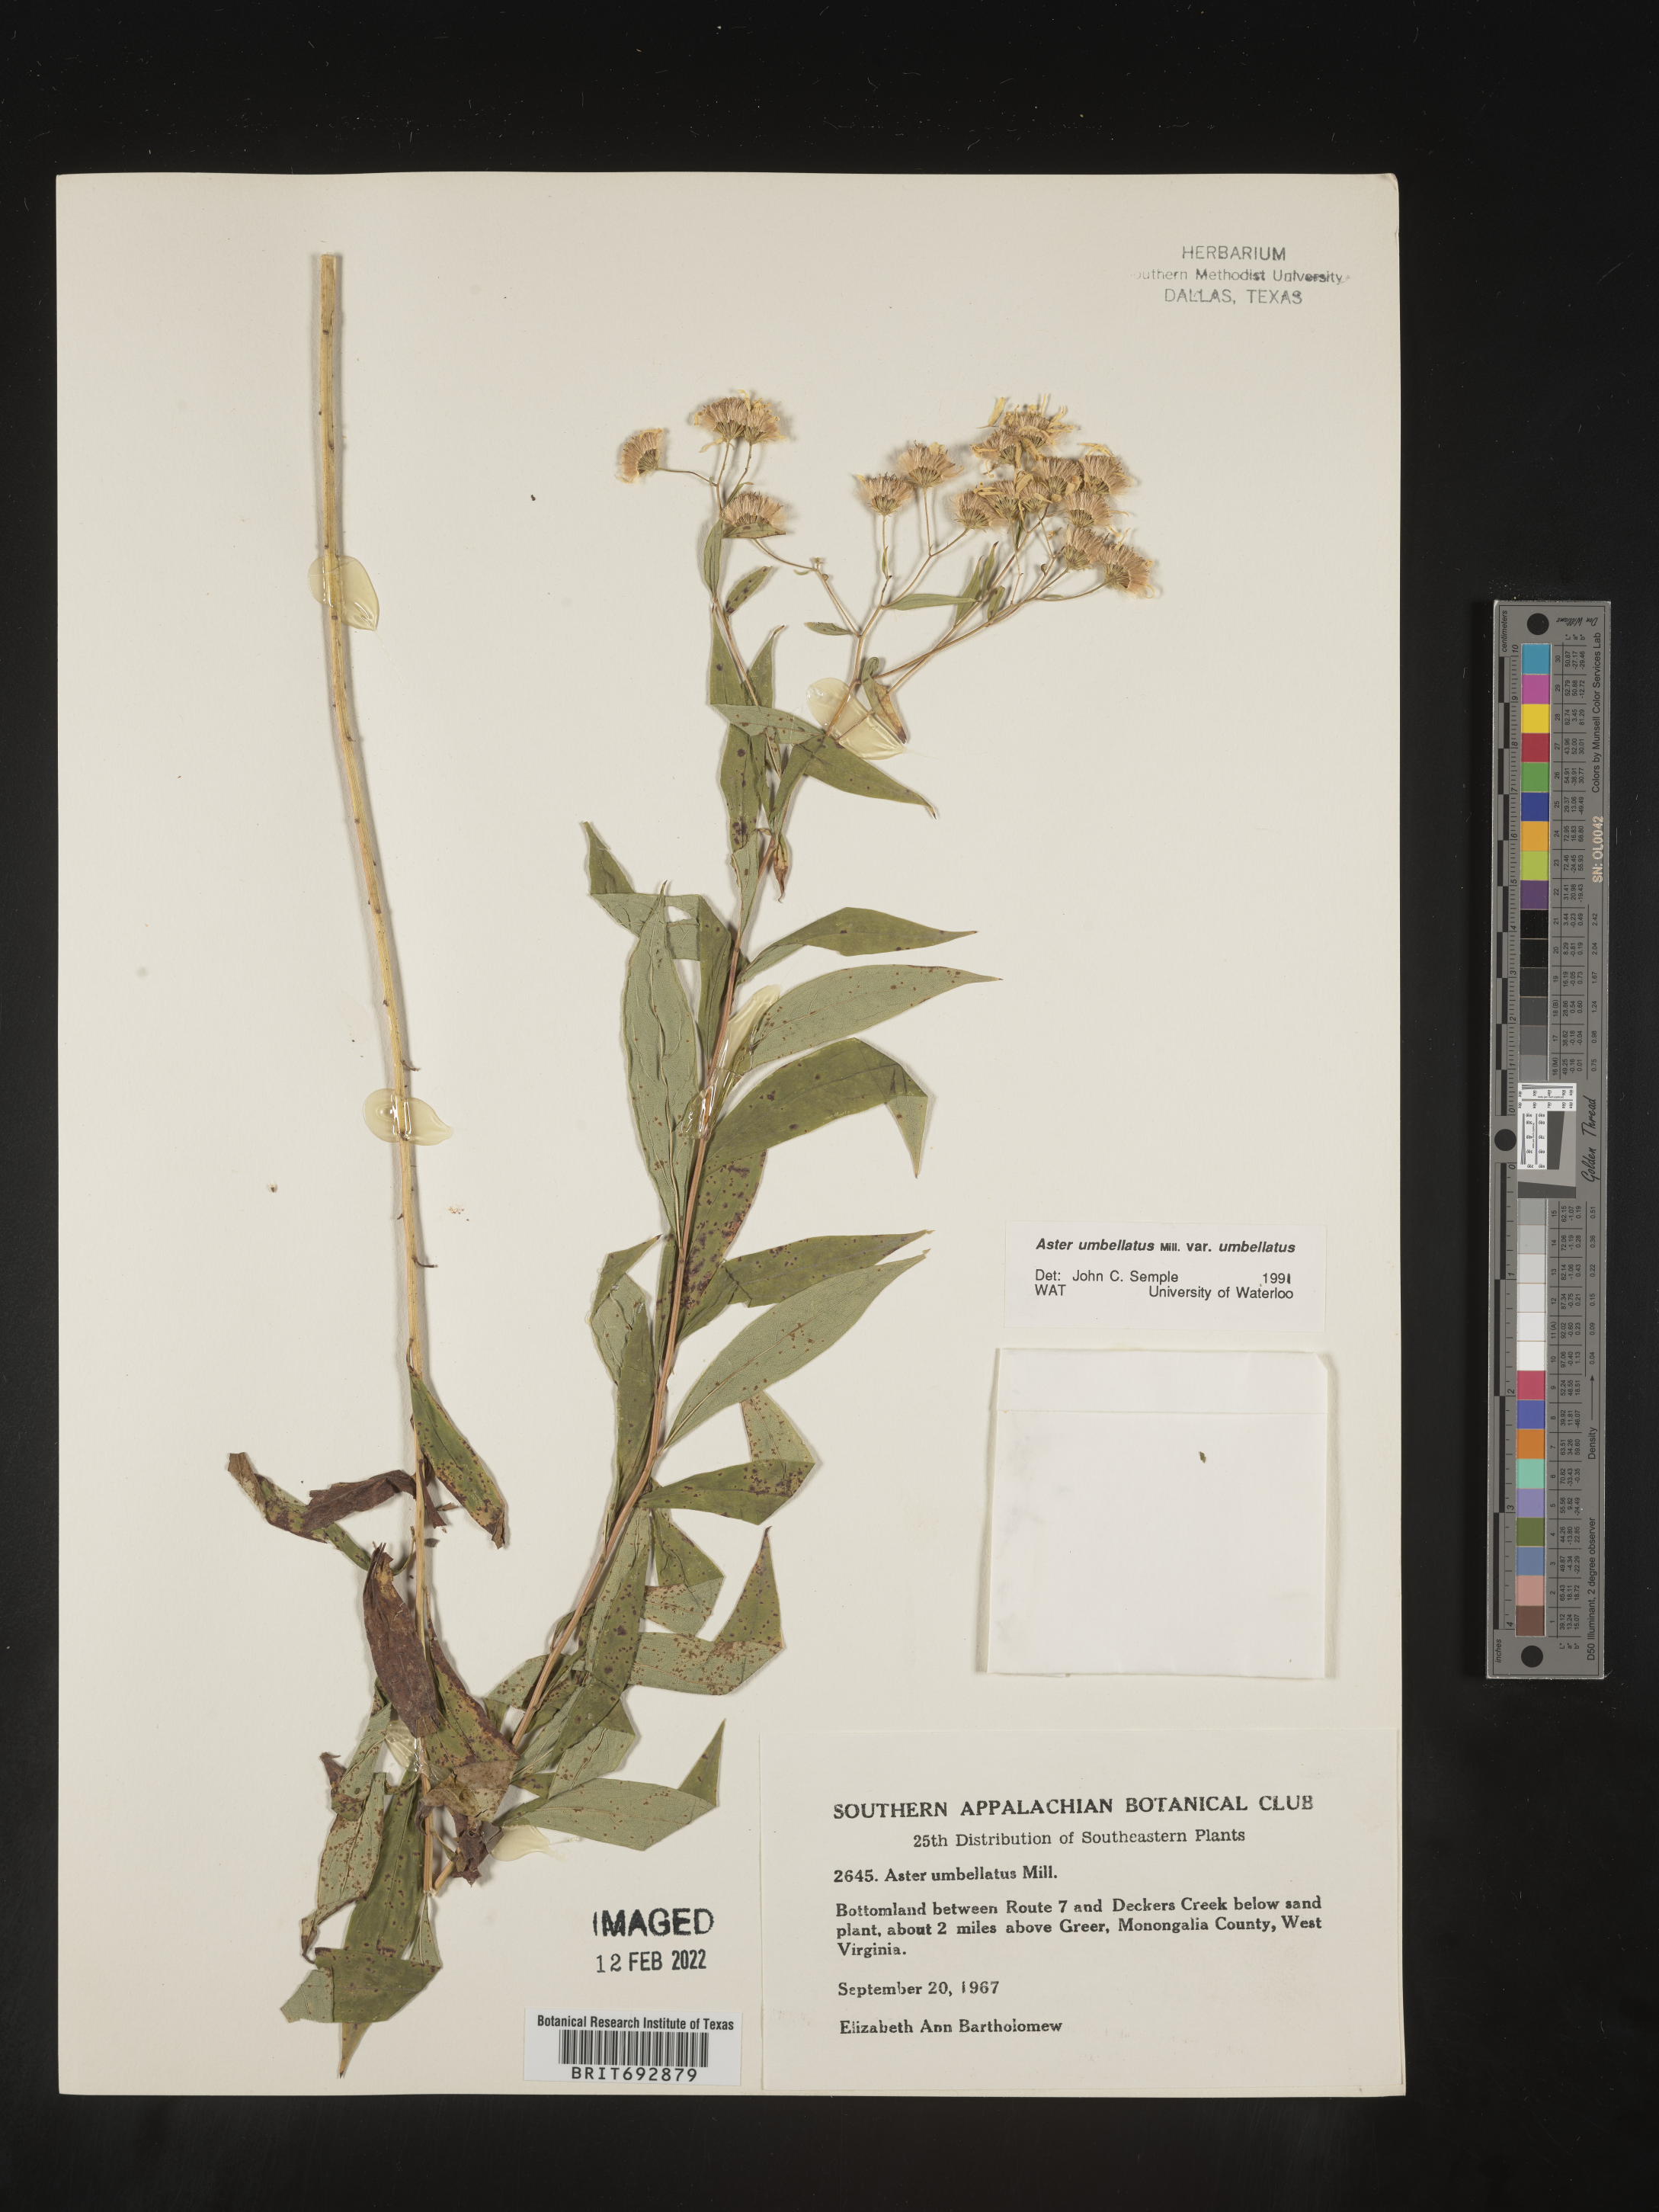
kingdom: Plantae
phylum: Tracheophyta
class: Magnoliopsida
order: Asterales
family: Asteraceae
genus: Doellingeria
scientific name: Doellingeria umbellata
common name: Flat-top white aster
